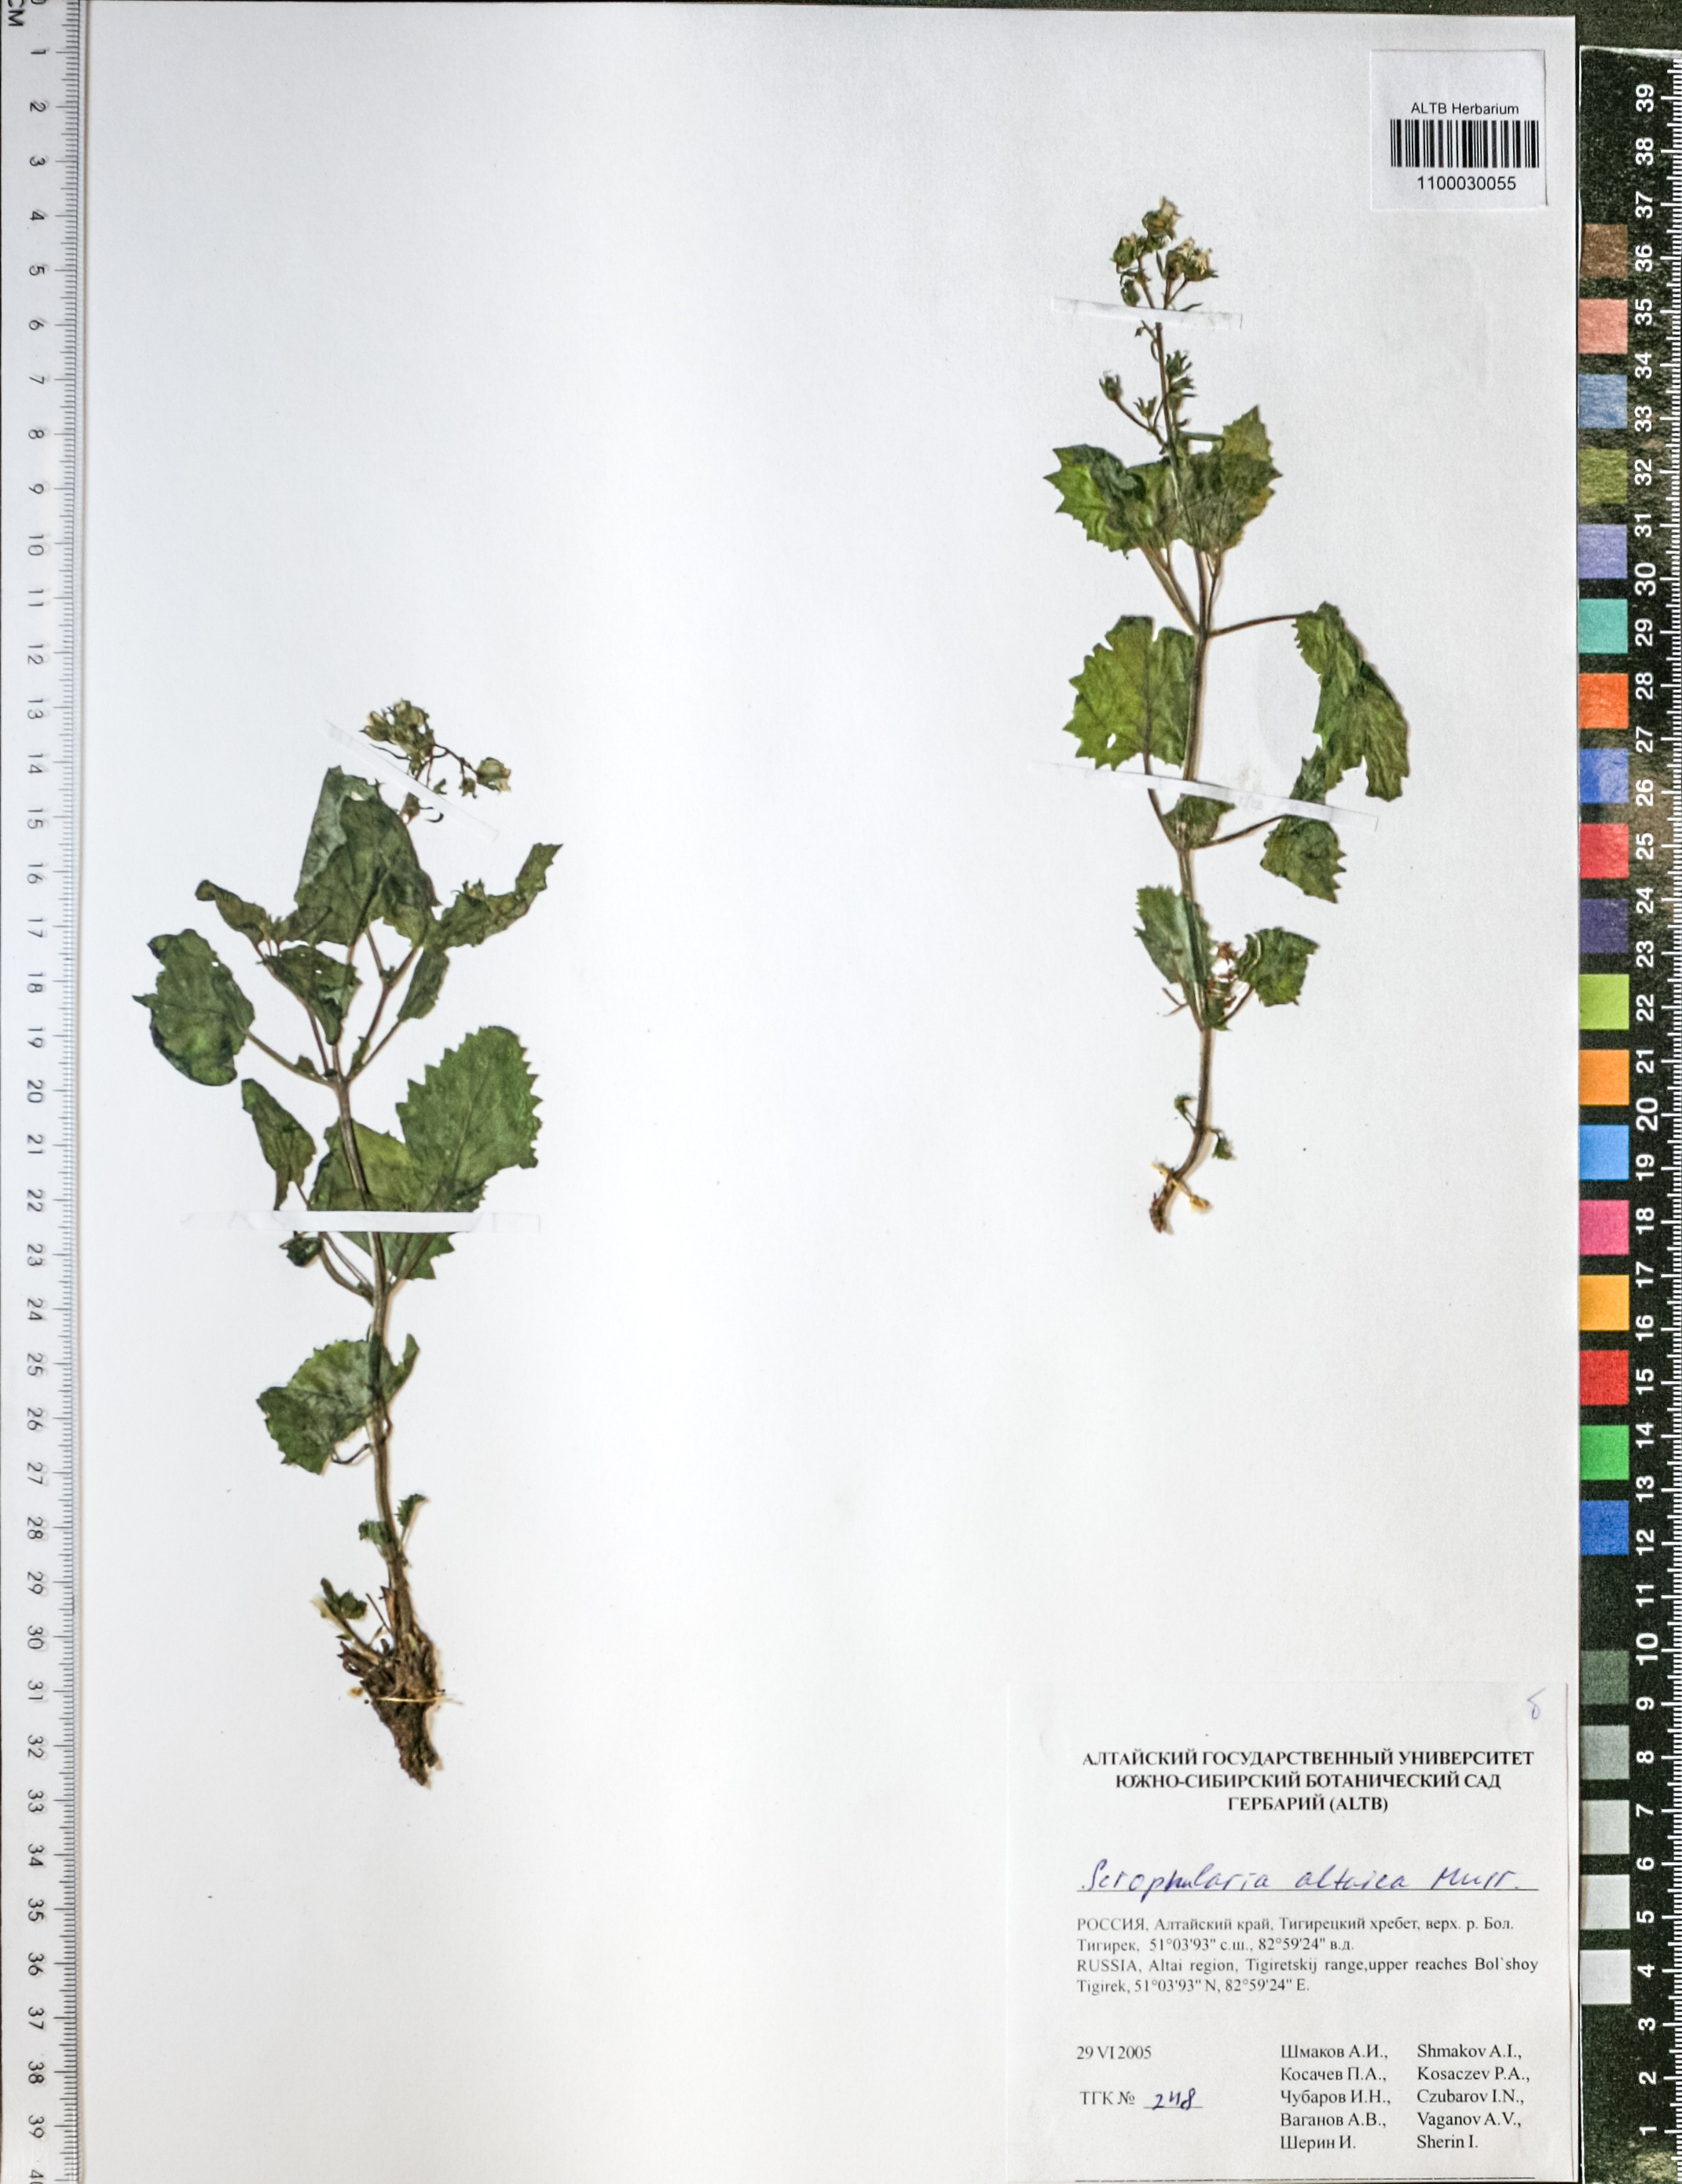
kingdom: Plantae
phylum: Tracheophyta
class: Magnoliopsida
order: Lamiales
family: Scrophulariaceae
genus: Scrophularia
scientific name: Scrophularia altaica
